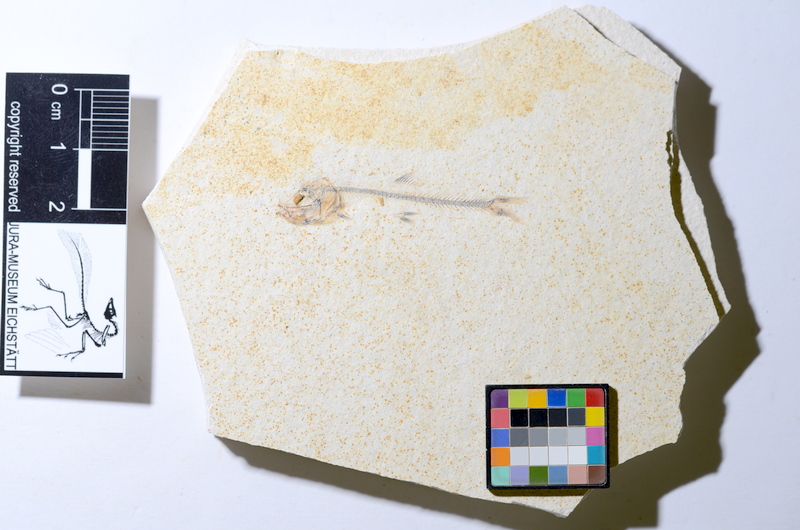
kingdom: Animalia
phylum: Chordata
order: Salmoniformes
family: Orthogonikleithridae
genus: Orthogonikleithrus
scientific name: Orthogonikleithrus hoelli
